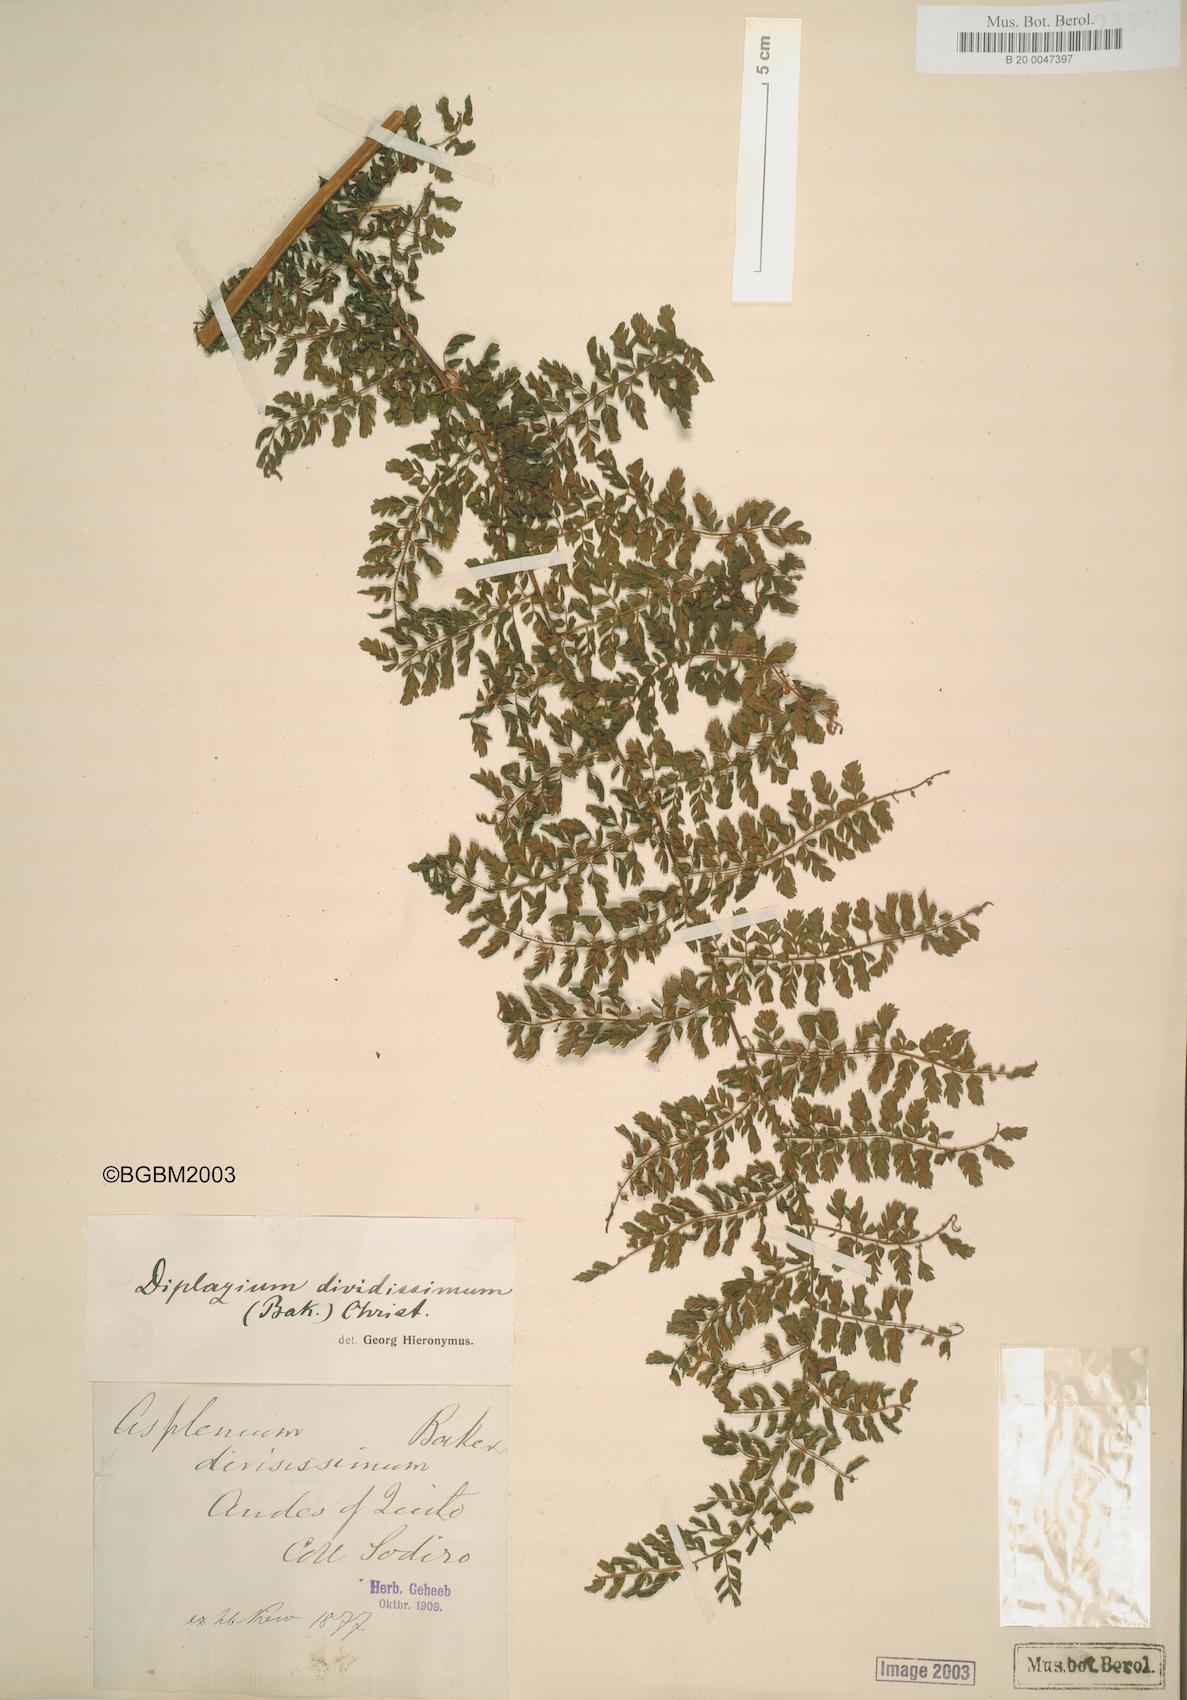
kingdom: Plantae
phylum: Tracheophyta
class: Polypodiopsida
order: Polypodiales
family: Athyriaceae
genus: Diplazium
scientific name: Diplazium divisissimum
